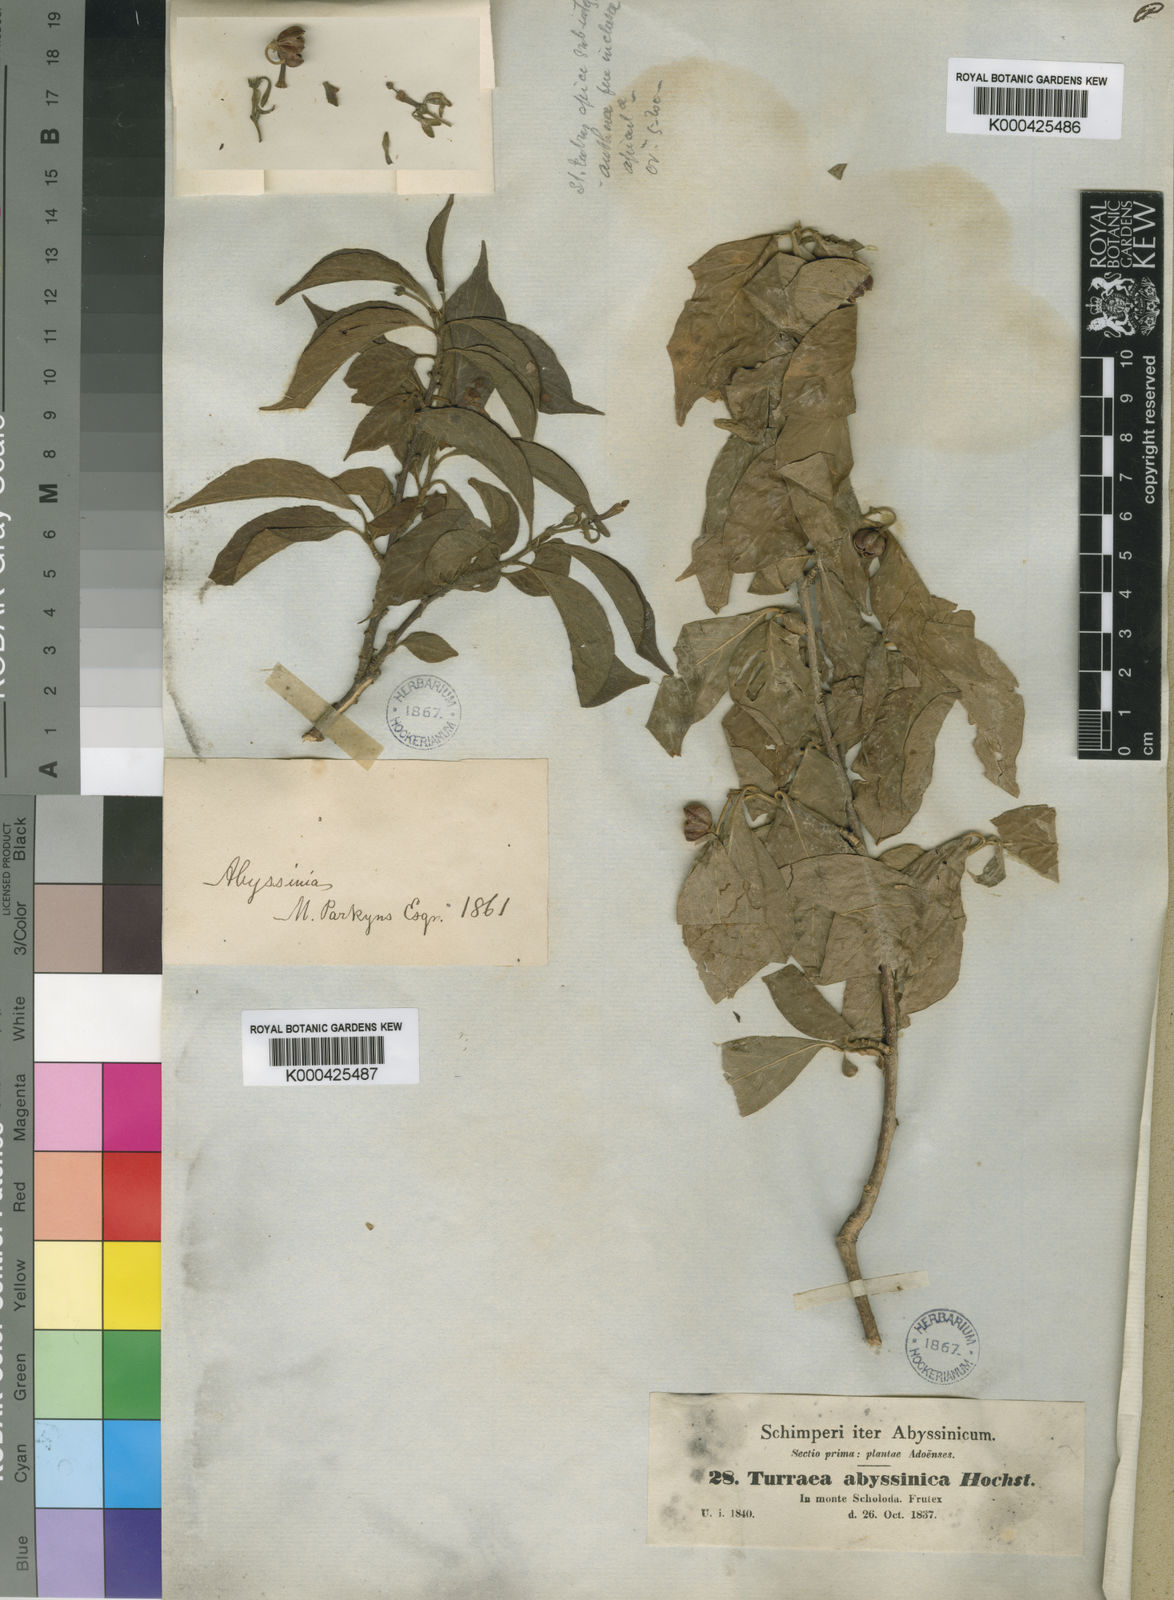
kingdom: Plantae
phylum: Tracheophyta
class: Magnoliopsida
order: Sapindales
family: Meliaceae
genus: Turraea
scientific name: Turraea
